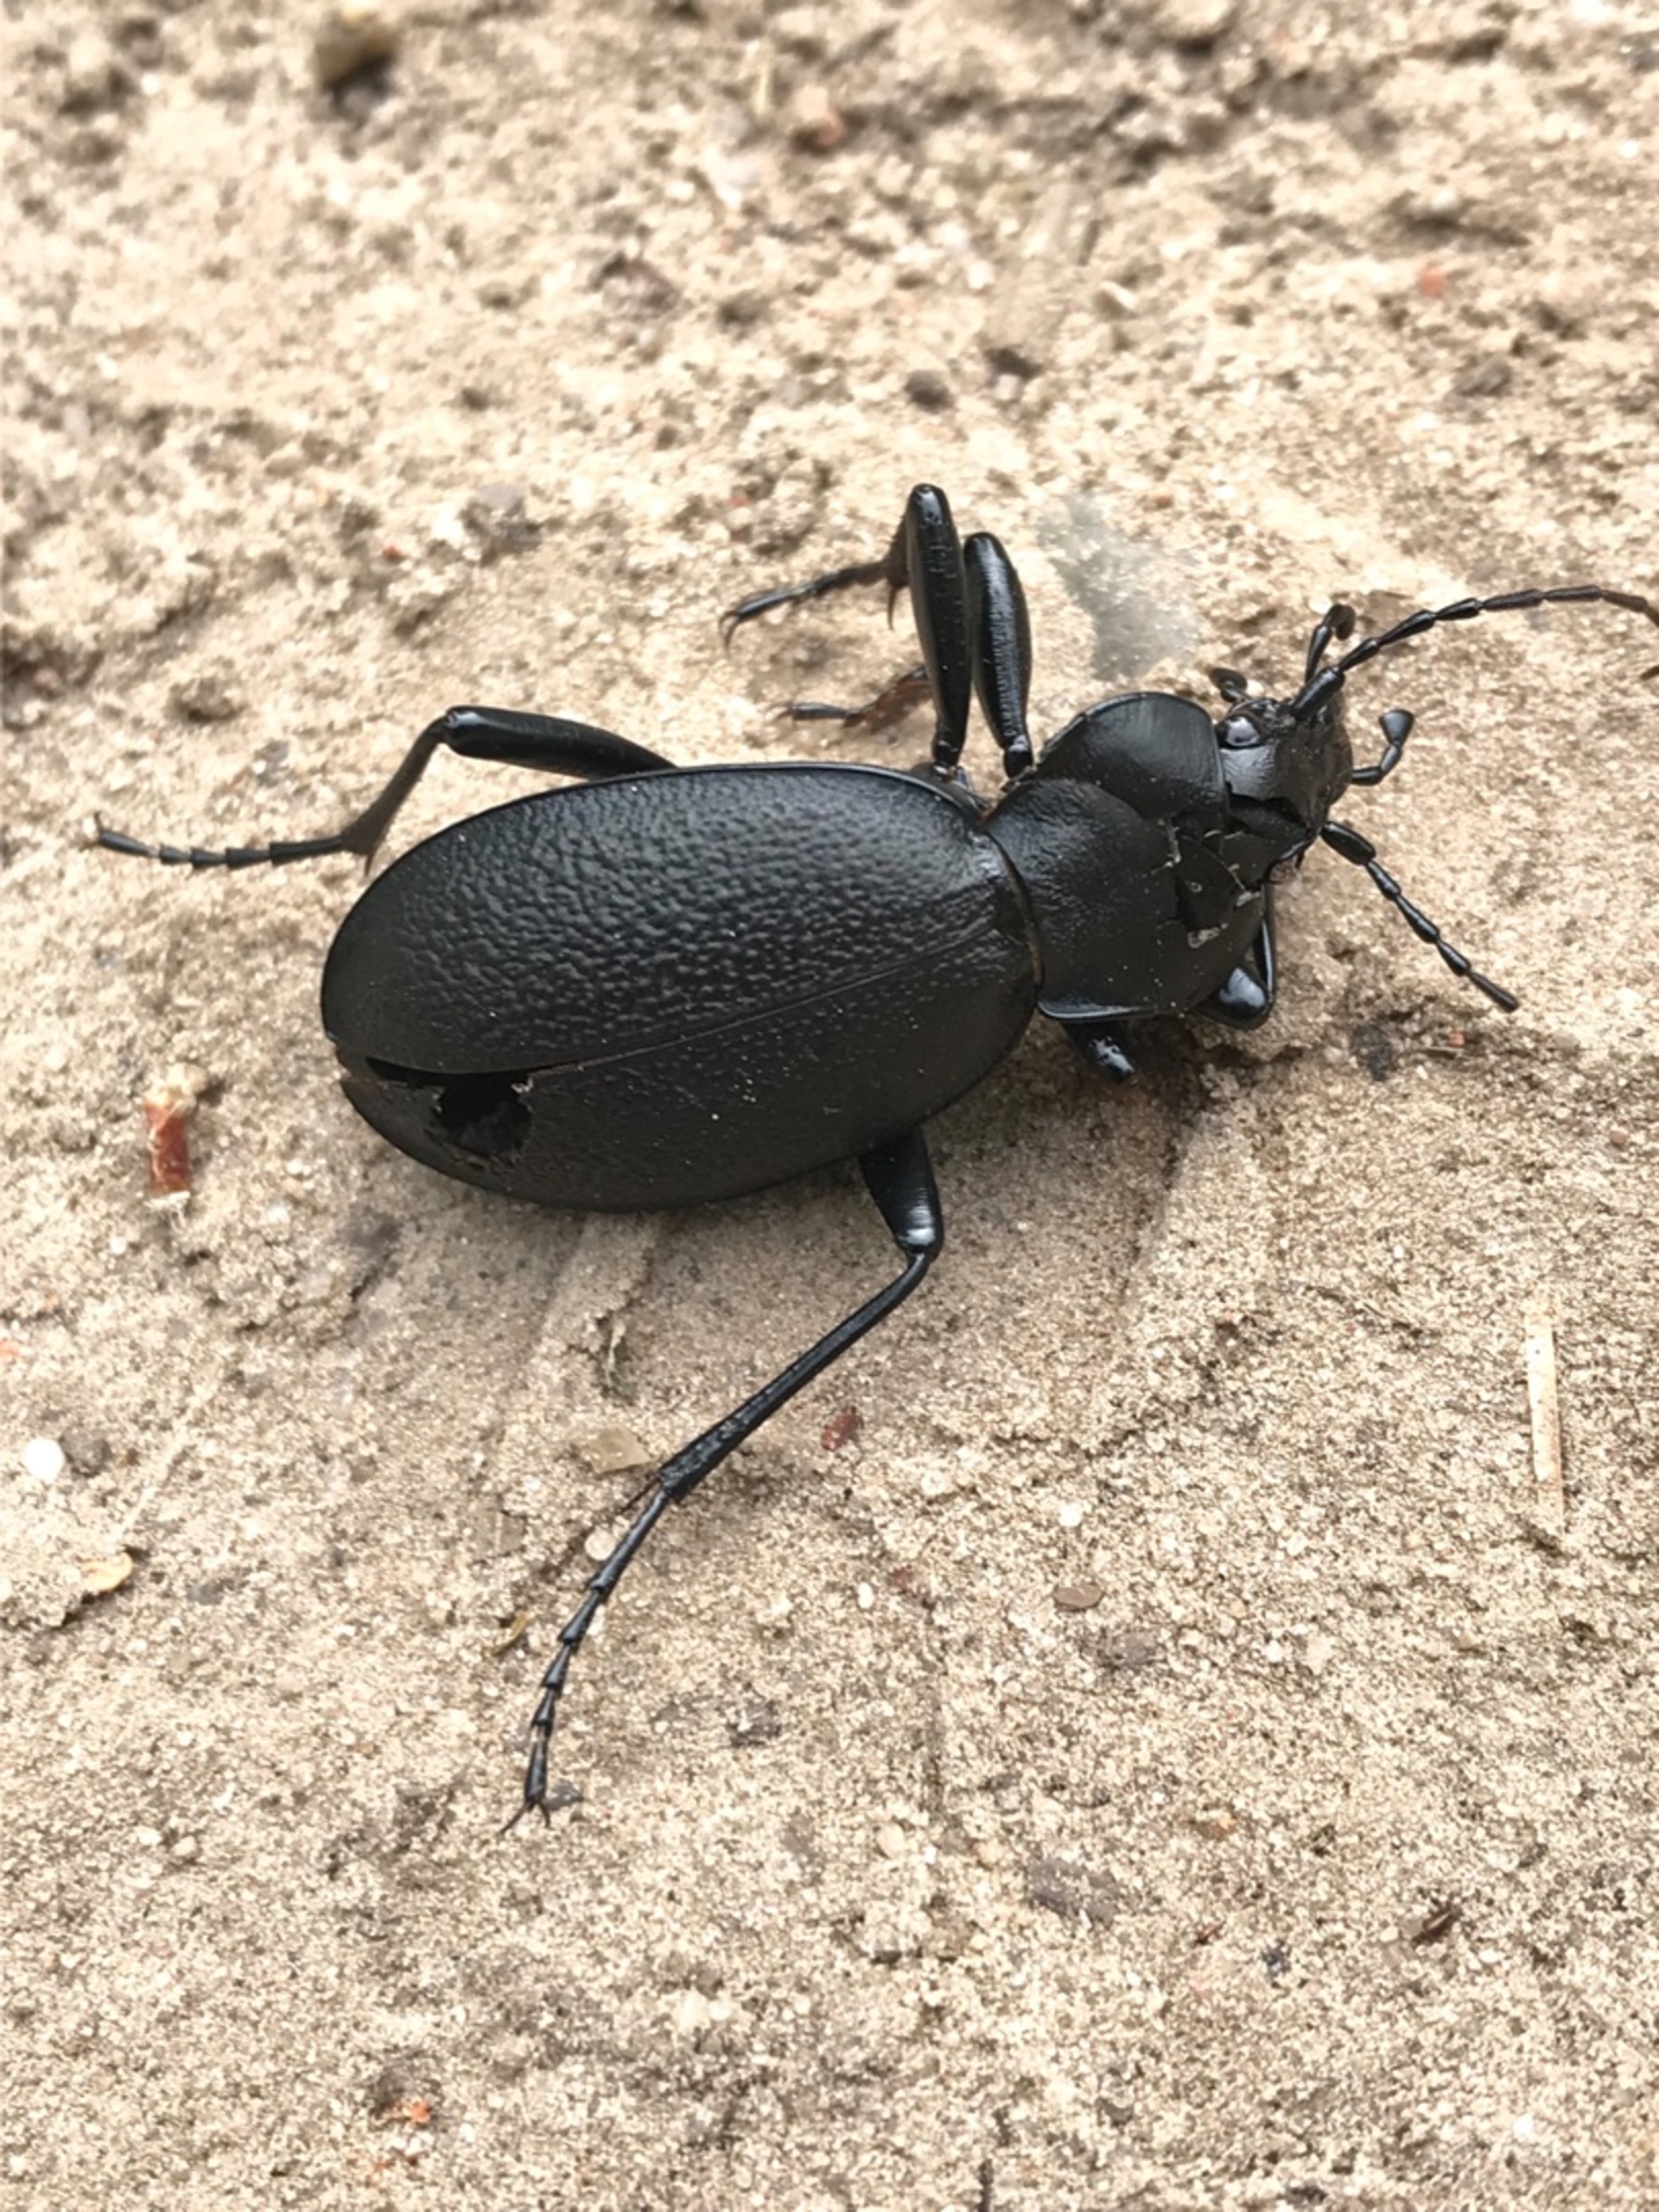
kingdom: Animalia
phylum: Arthropoda
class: Insecta
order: Coleoptera
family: Carabidae
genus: Carabus
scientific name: Carabus coriaceus
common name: Læderløber
